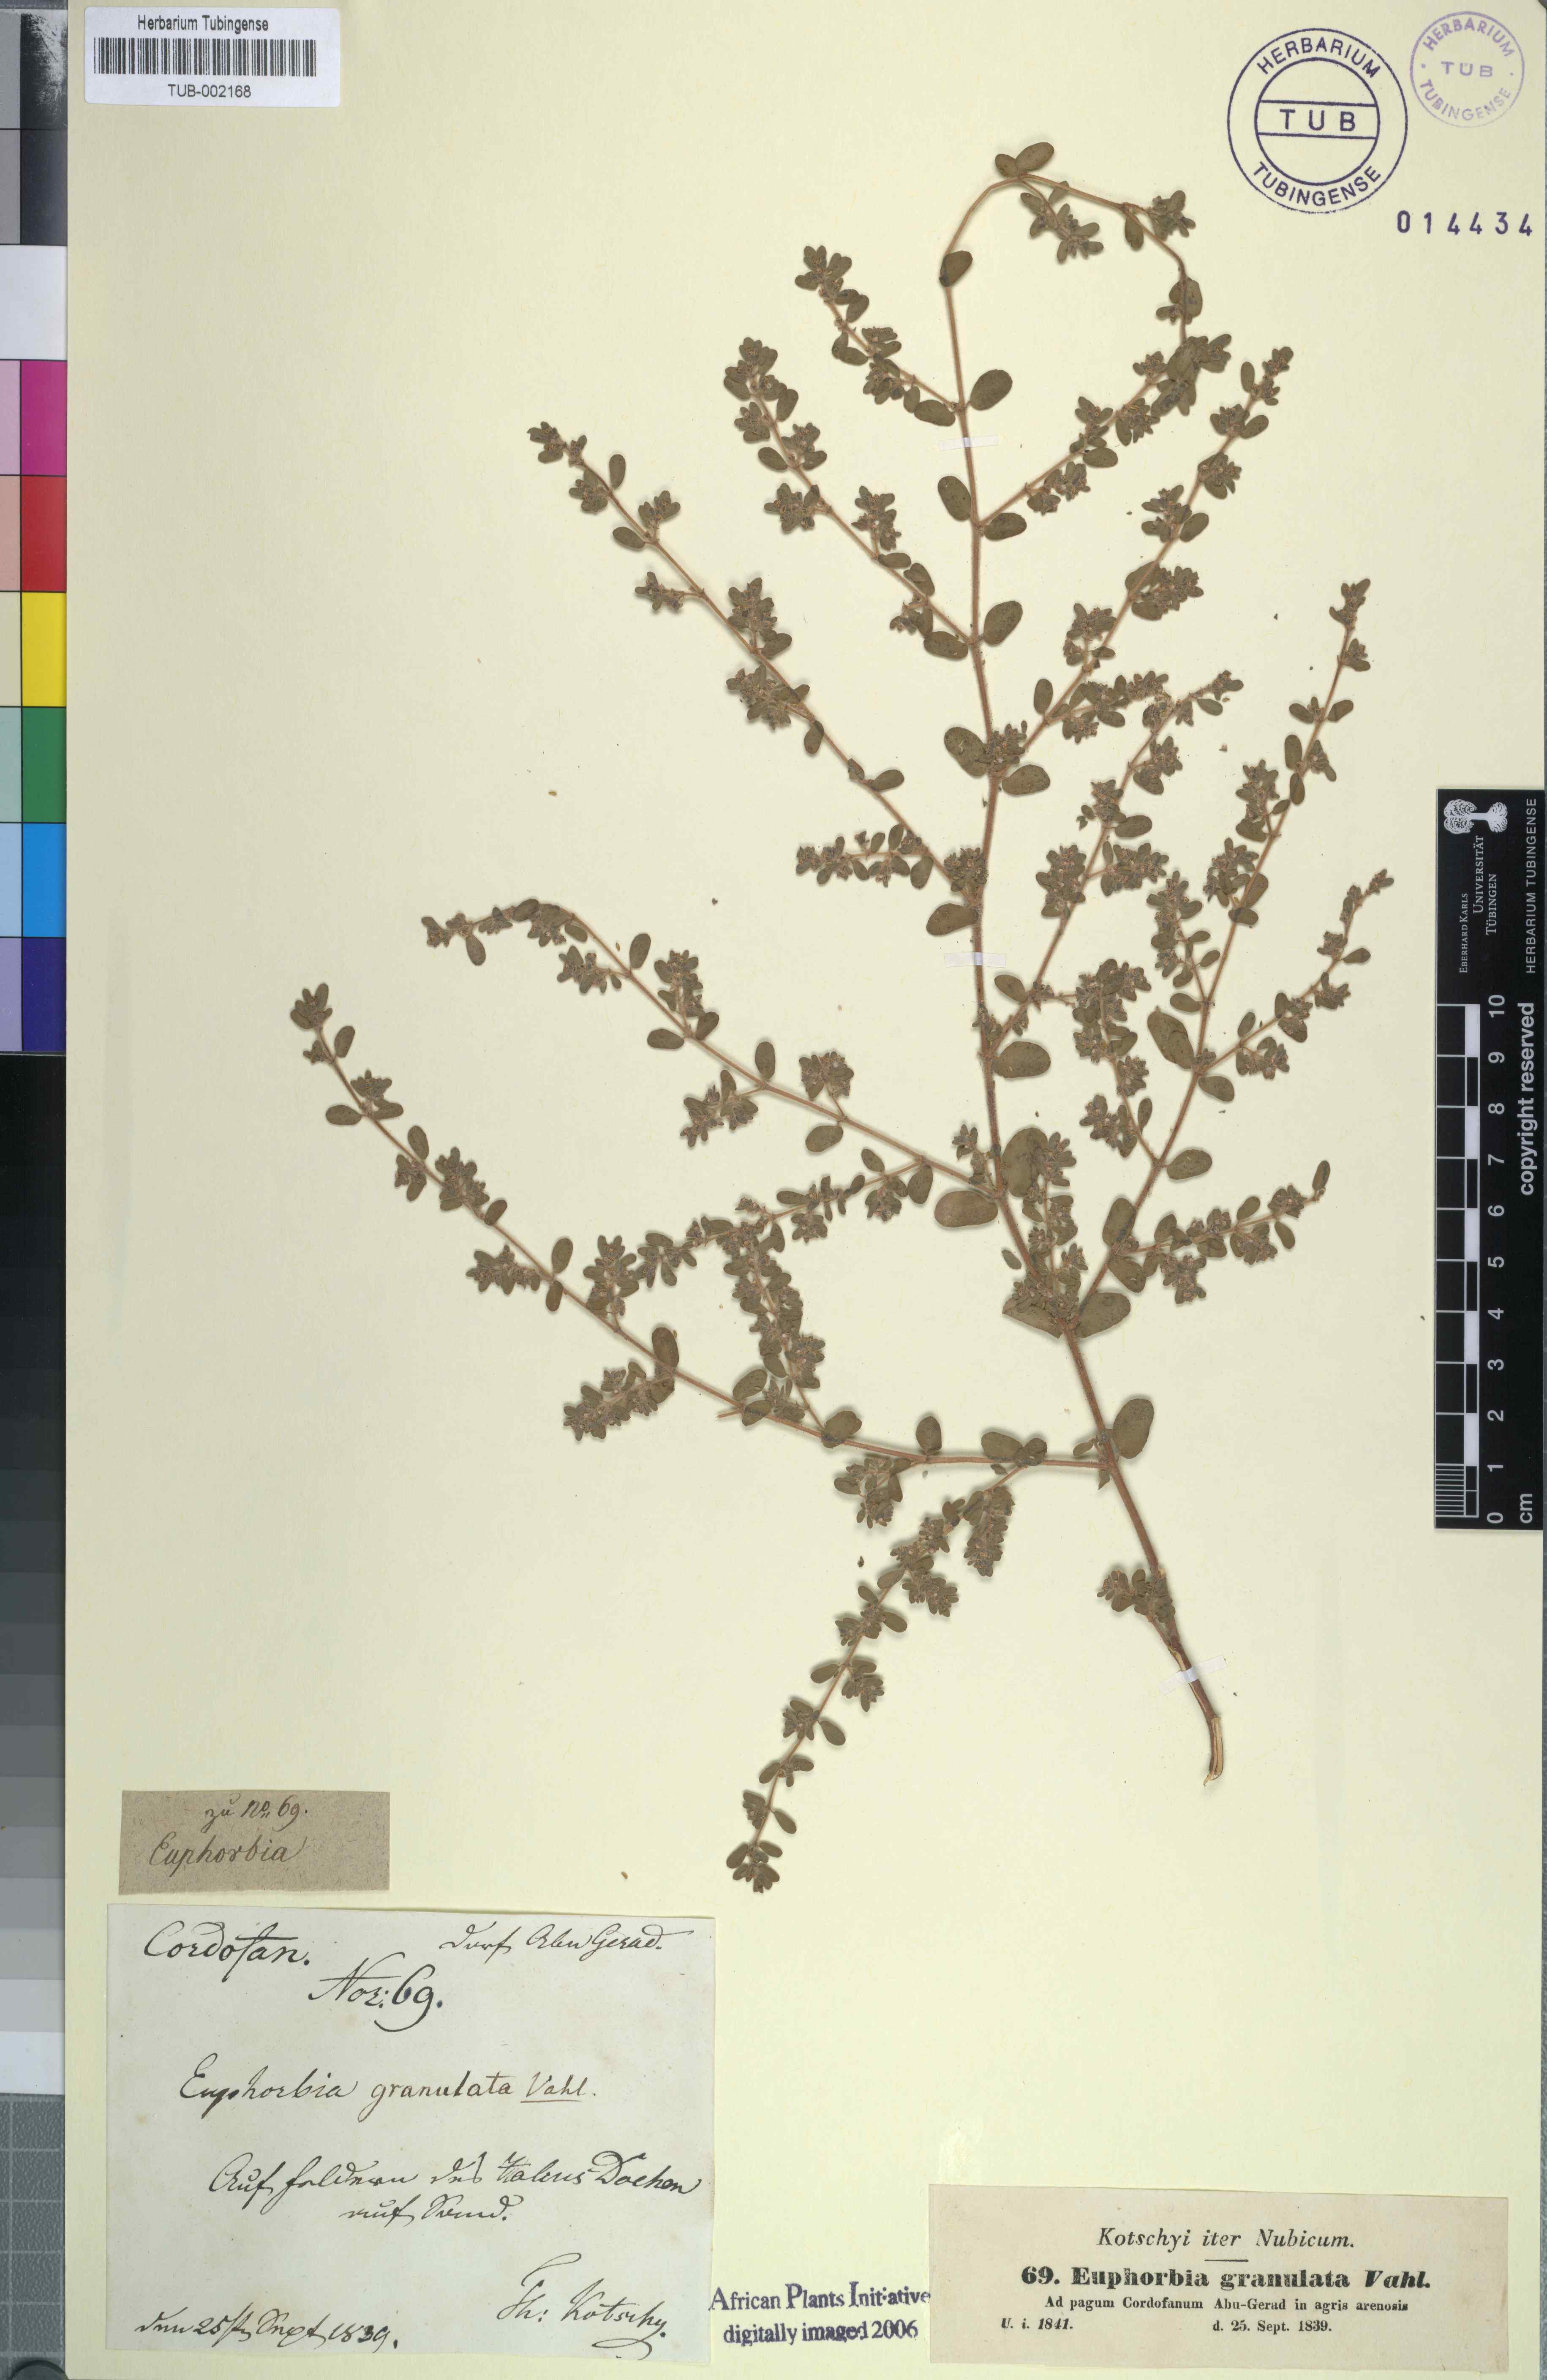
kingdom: Plantae
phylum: Tracheophyta
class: Magnoliopsida
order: Malpighiales
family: Euphorbiaceae
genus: Euphorbia
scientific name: Euphorbia granulata
